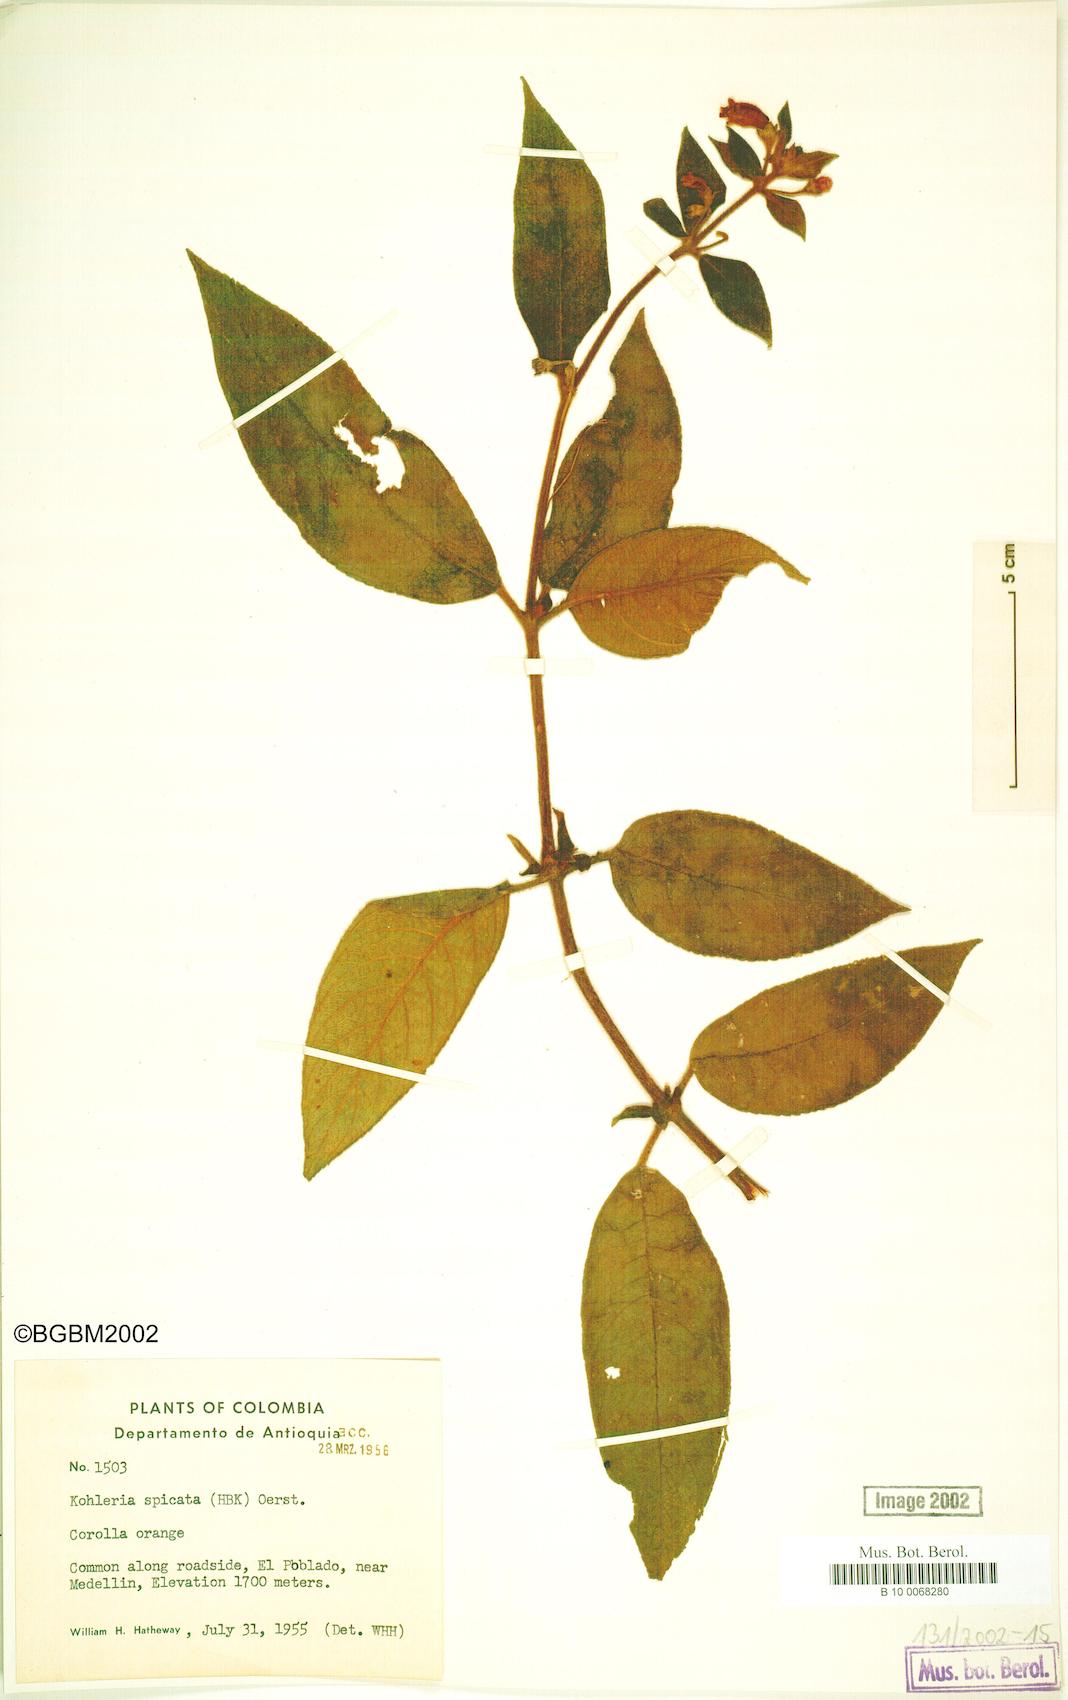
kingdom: Plantae
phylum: Tracheophyta
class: Magnoliopsida
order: Lamiales
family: Gesneriaceae
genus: Kohleria
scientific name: Kohleria spicata
